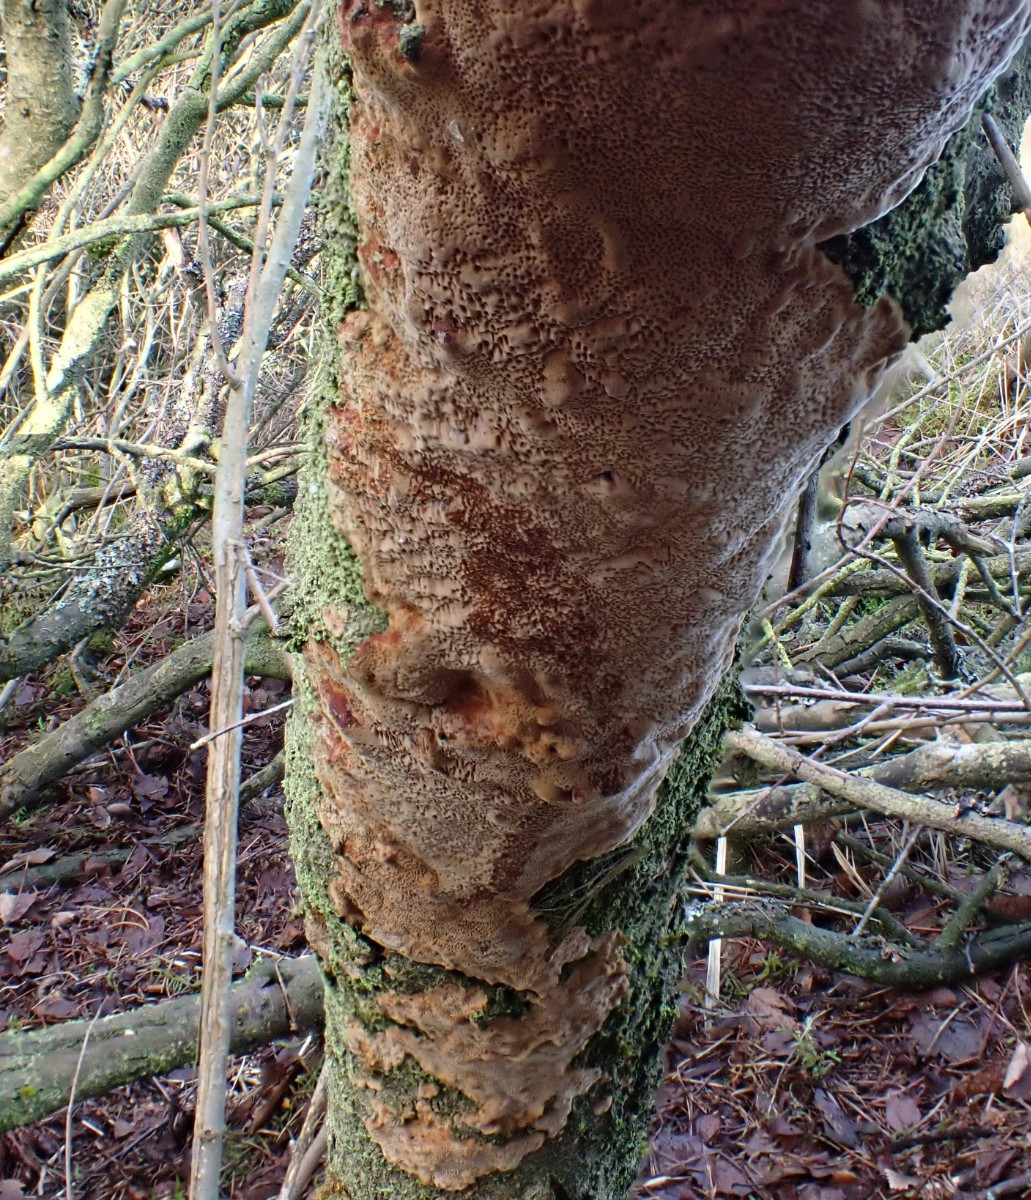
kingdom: Fungi
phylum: Basidiomycota
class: Agaricomycetes
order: Hymenochaetales
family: Hymenochaetaceae
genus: Fuscoporia
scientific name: Fuscoporia ferrea
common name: skorpe-ildporesvamp
